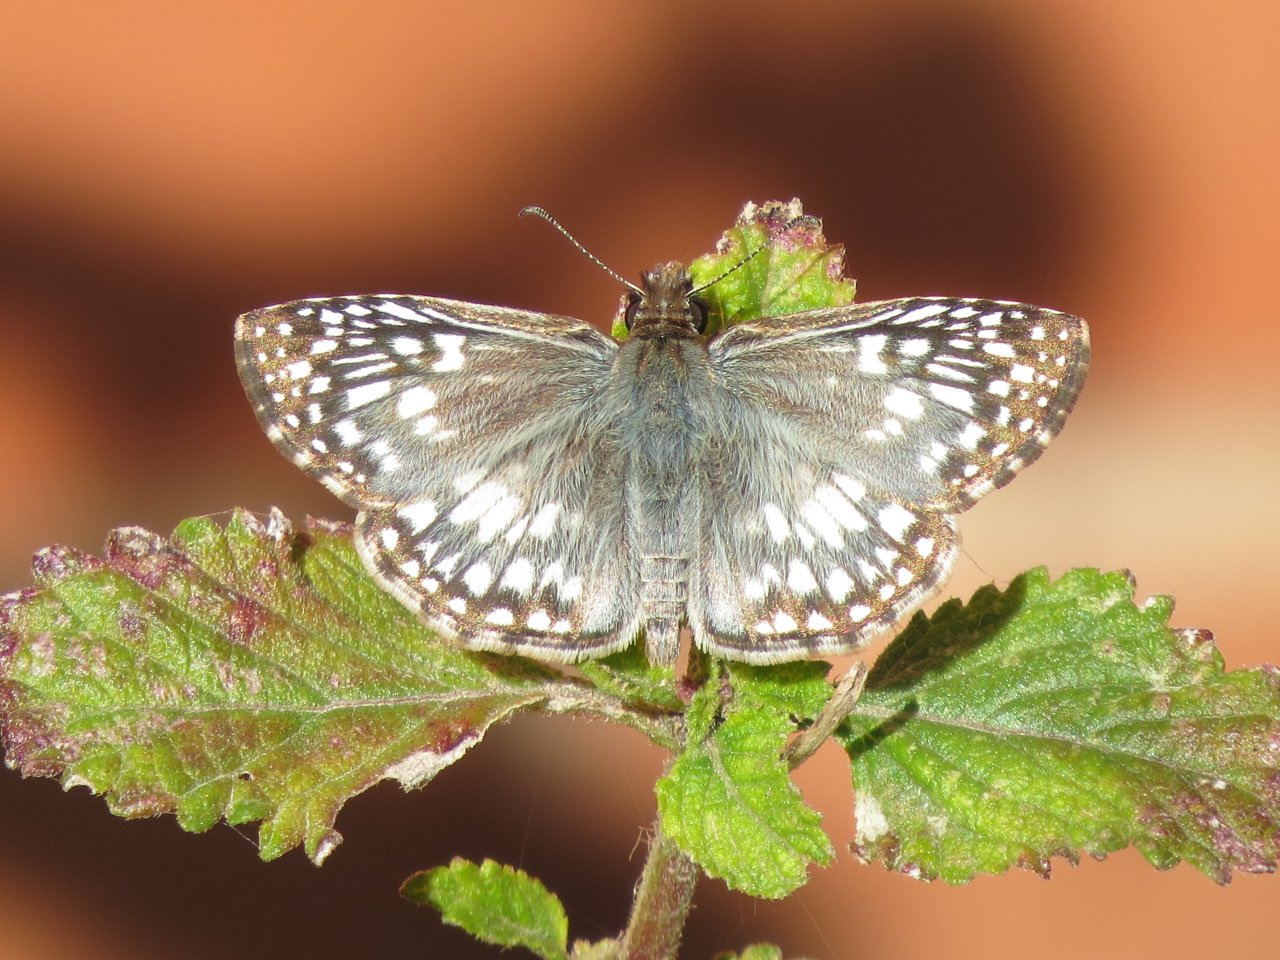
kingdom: Animalia
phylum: Arthropoda
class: Insecta
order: Lepidoptera
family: Hesperiidae
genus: Pyrgus
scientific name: Pyrgus communis
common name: Common Checkered-Skipper
